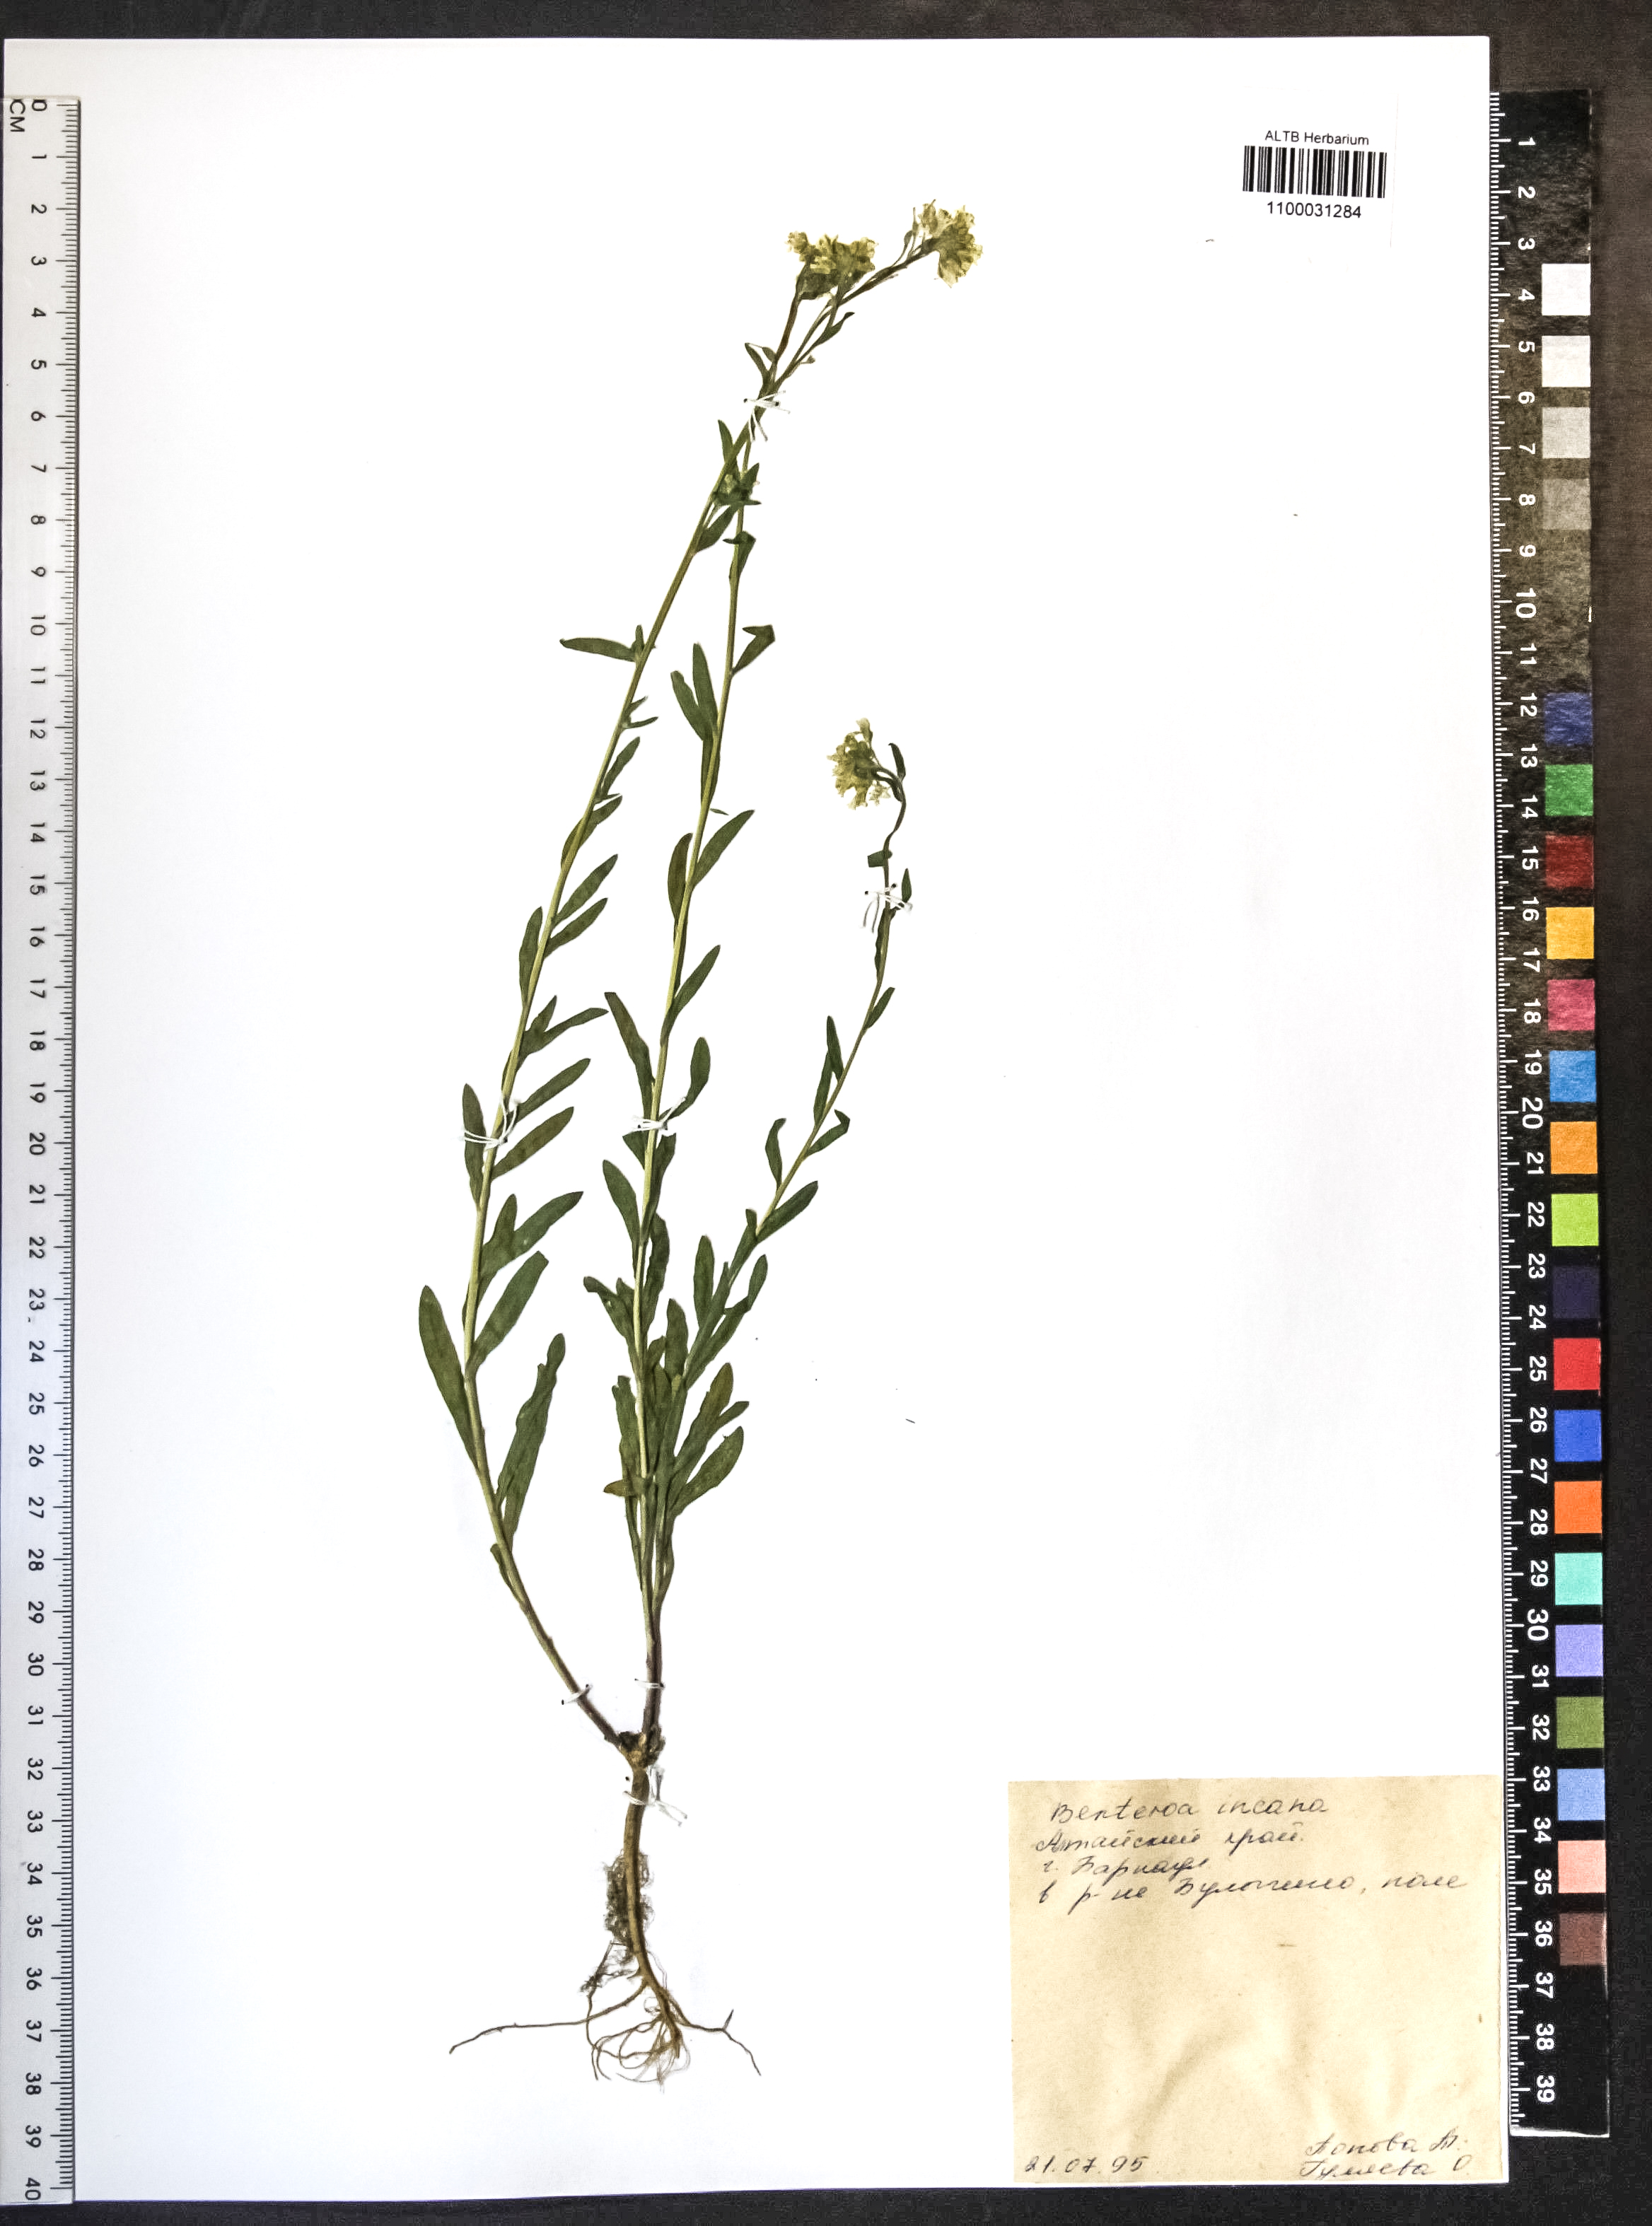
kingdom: Plantae
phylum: Tracheophyta
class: Magnoliopsida
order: Brassicales
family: Brassicaceae
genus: Berteroa
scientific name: Berteroa incana
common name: Hoary alison
